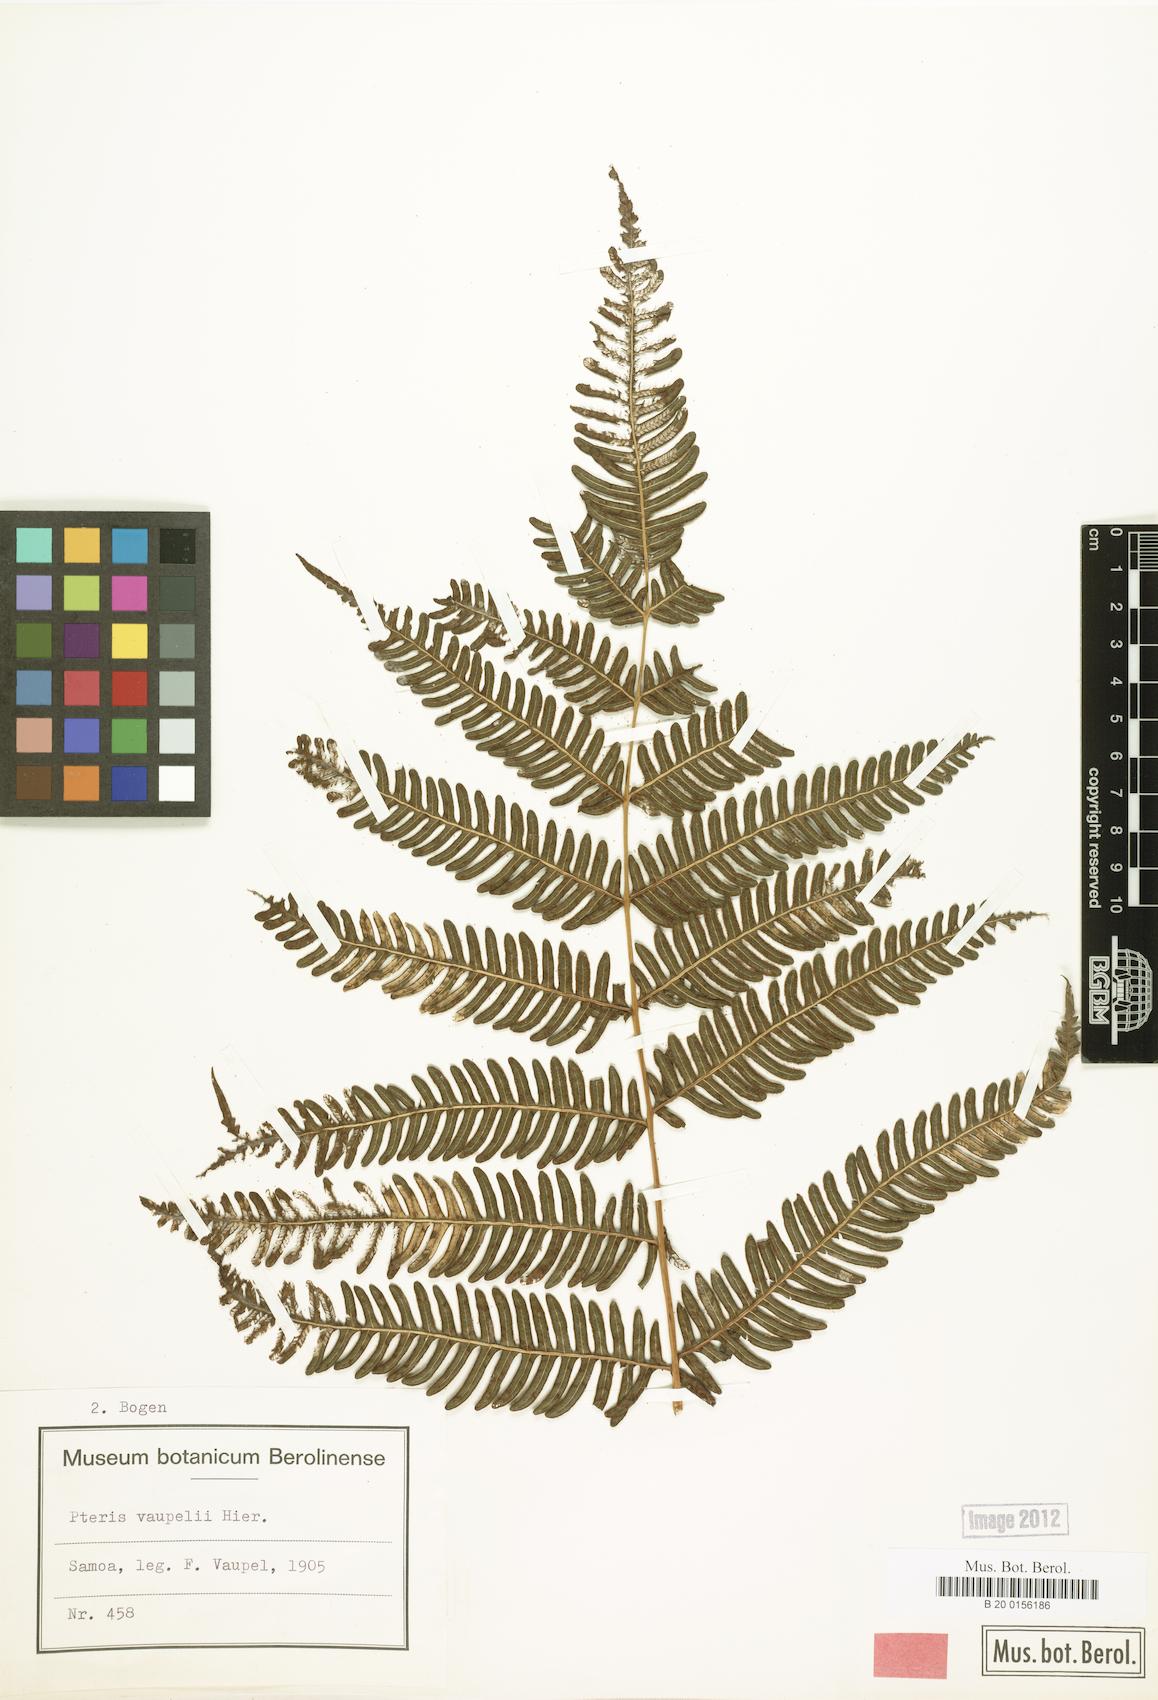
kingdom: Plantae
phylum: Tracheophyta
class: Polypodiopsida
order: Polypodiales
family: Pteridaceae
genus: Pteris
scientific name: Pteris vaupelii
